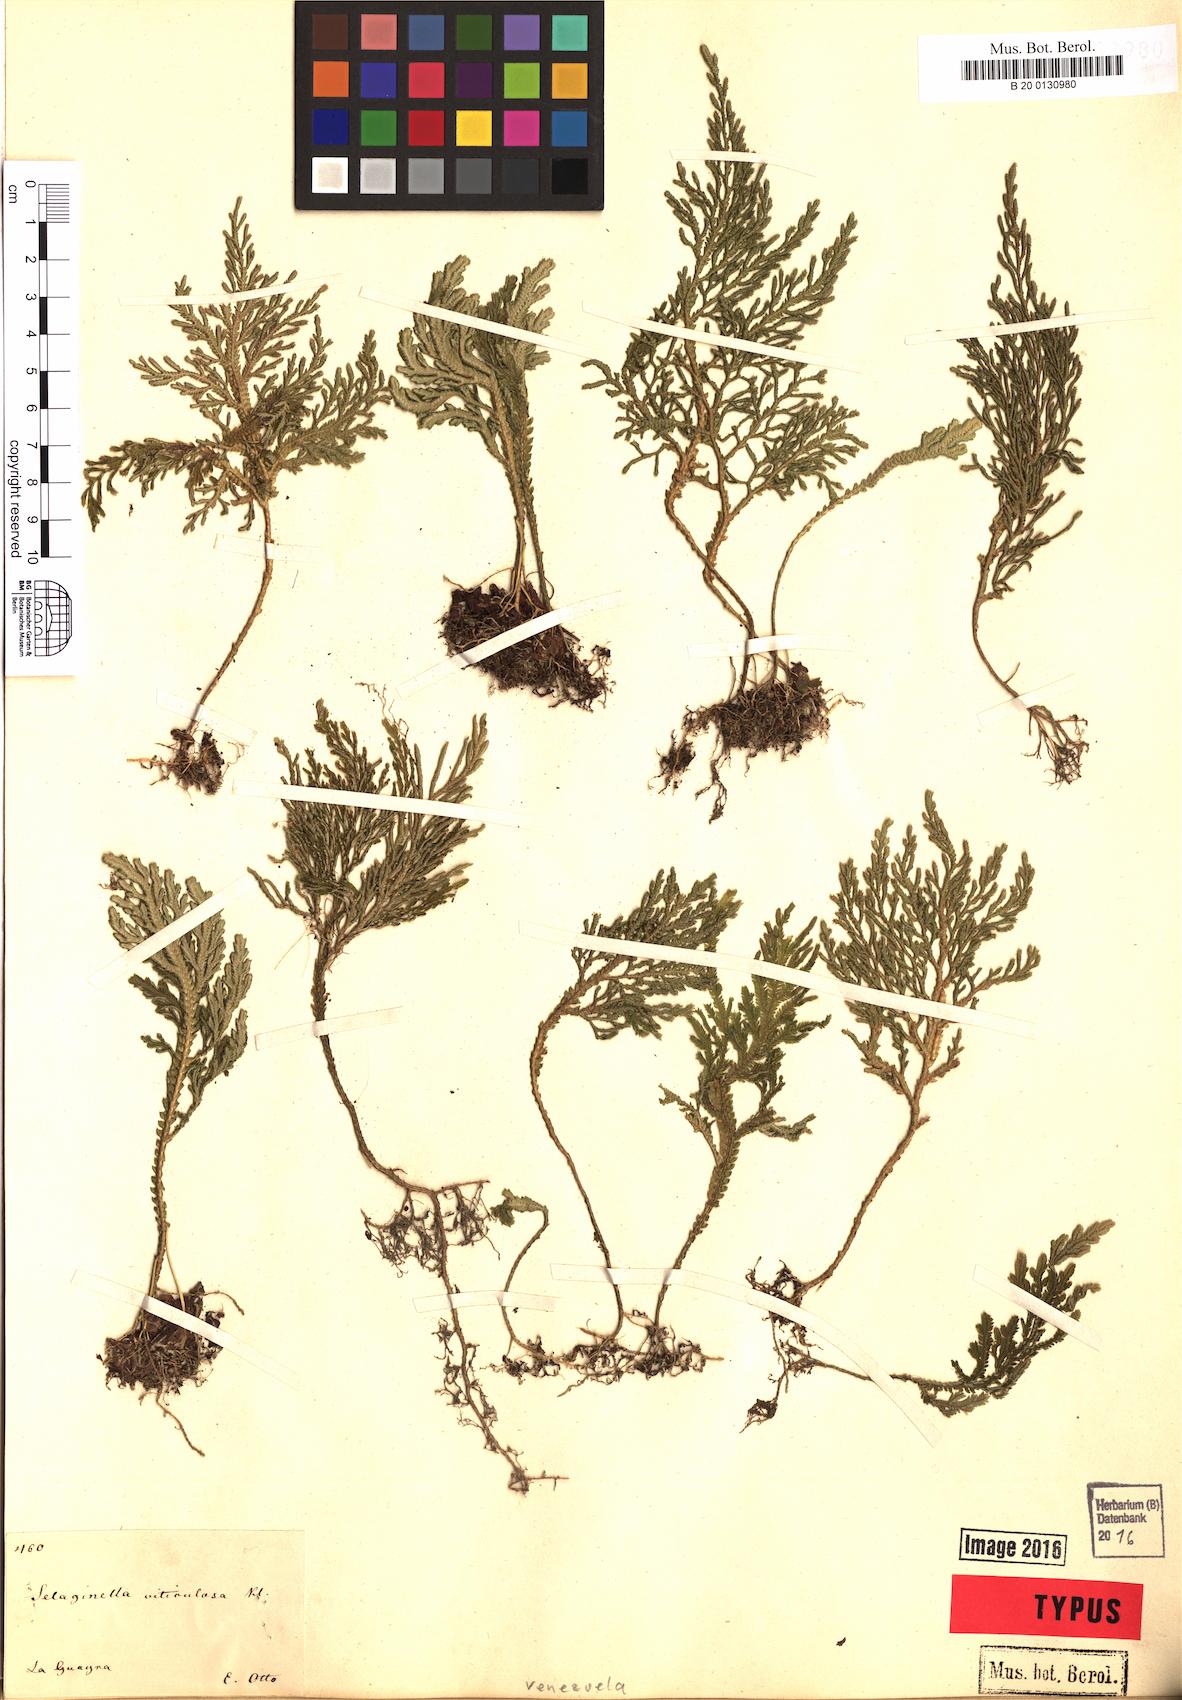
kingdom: Plantae
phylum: Tracheophyta
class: Lycopodiopsida
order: Selaginellales
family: Selaginellaceae
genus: Selaginella
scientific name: Selaginella viticulosa
